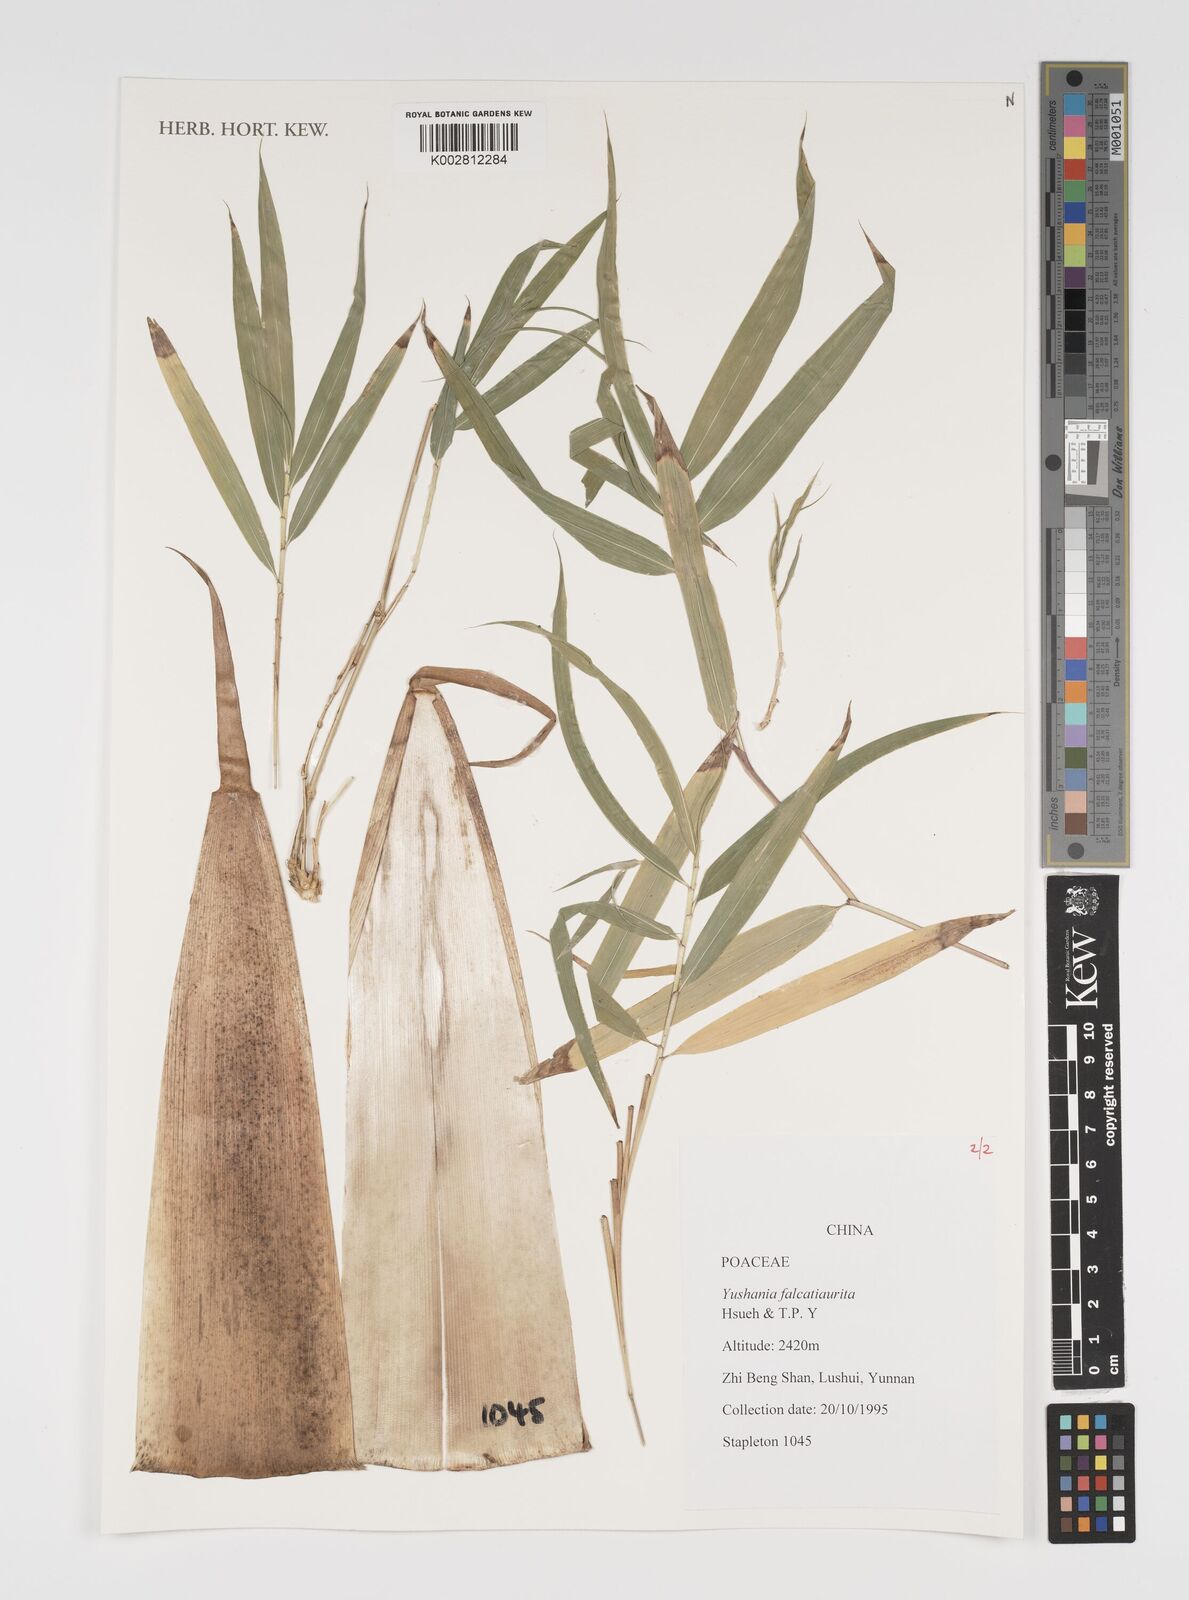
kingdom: Plantae
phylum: Tracheophyta
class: Liliopsida
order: Poales
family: Poaceae
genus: Yushania
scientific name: Yushania falcatiaurita
